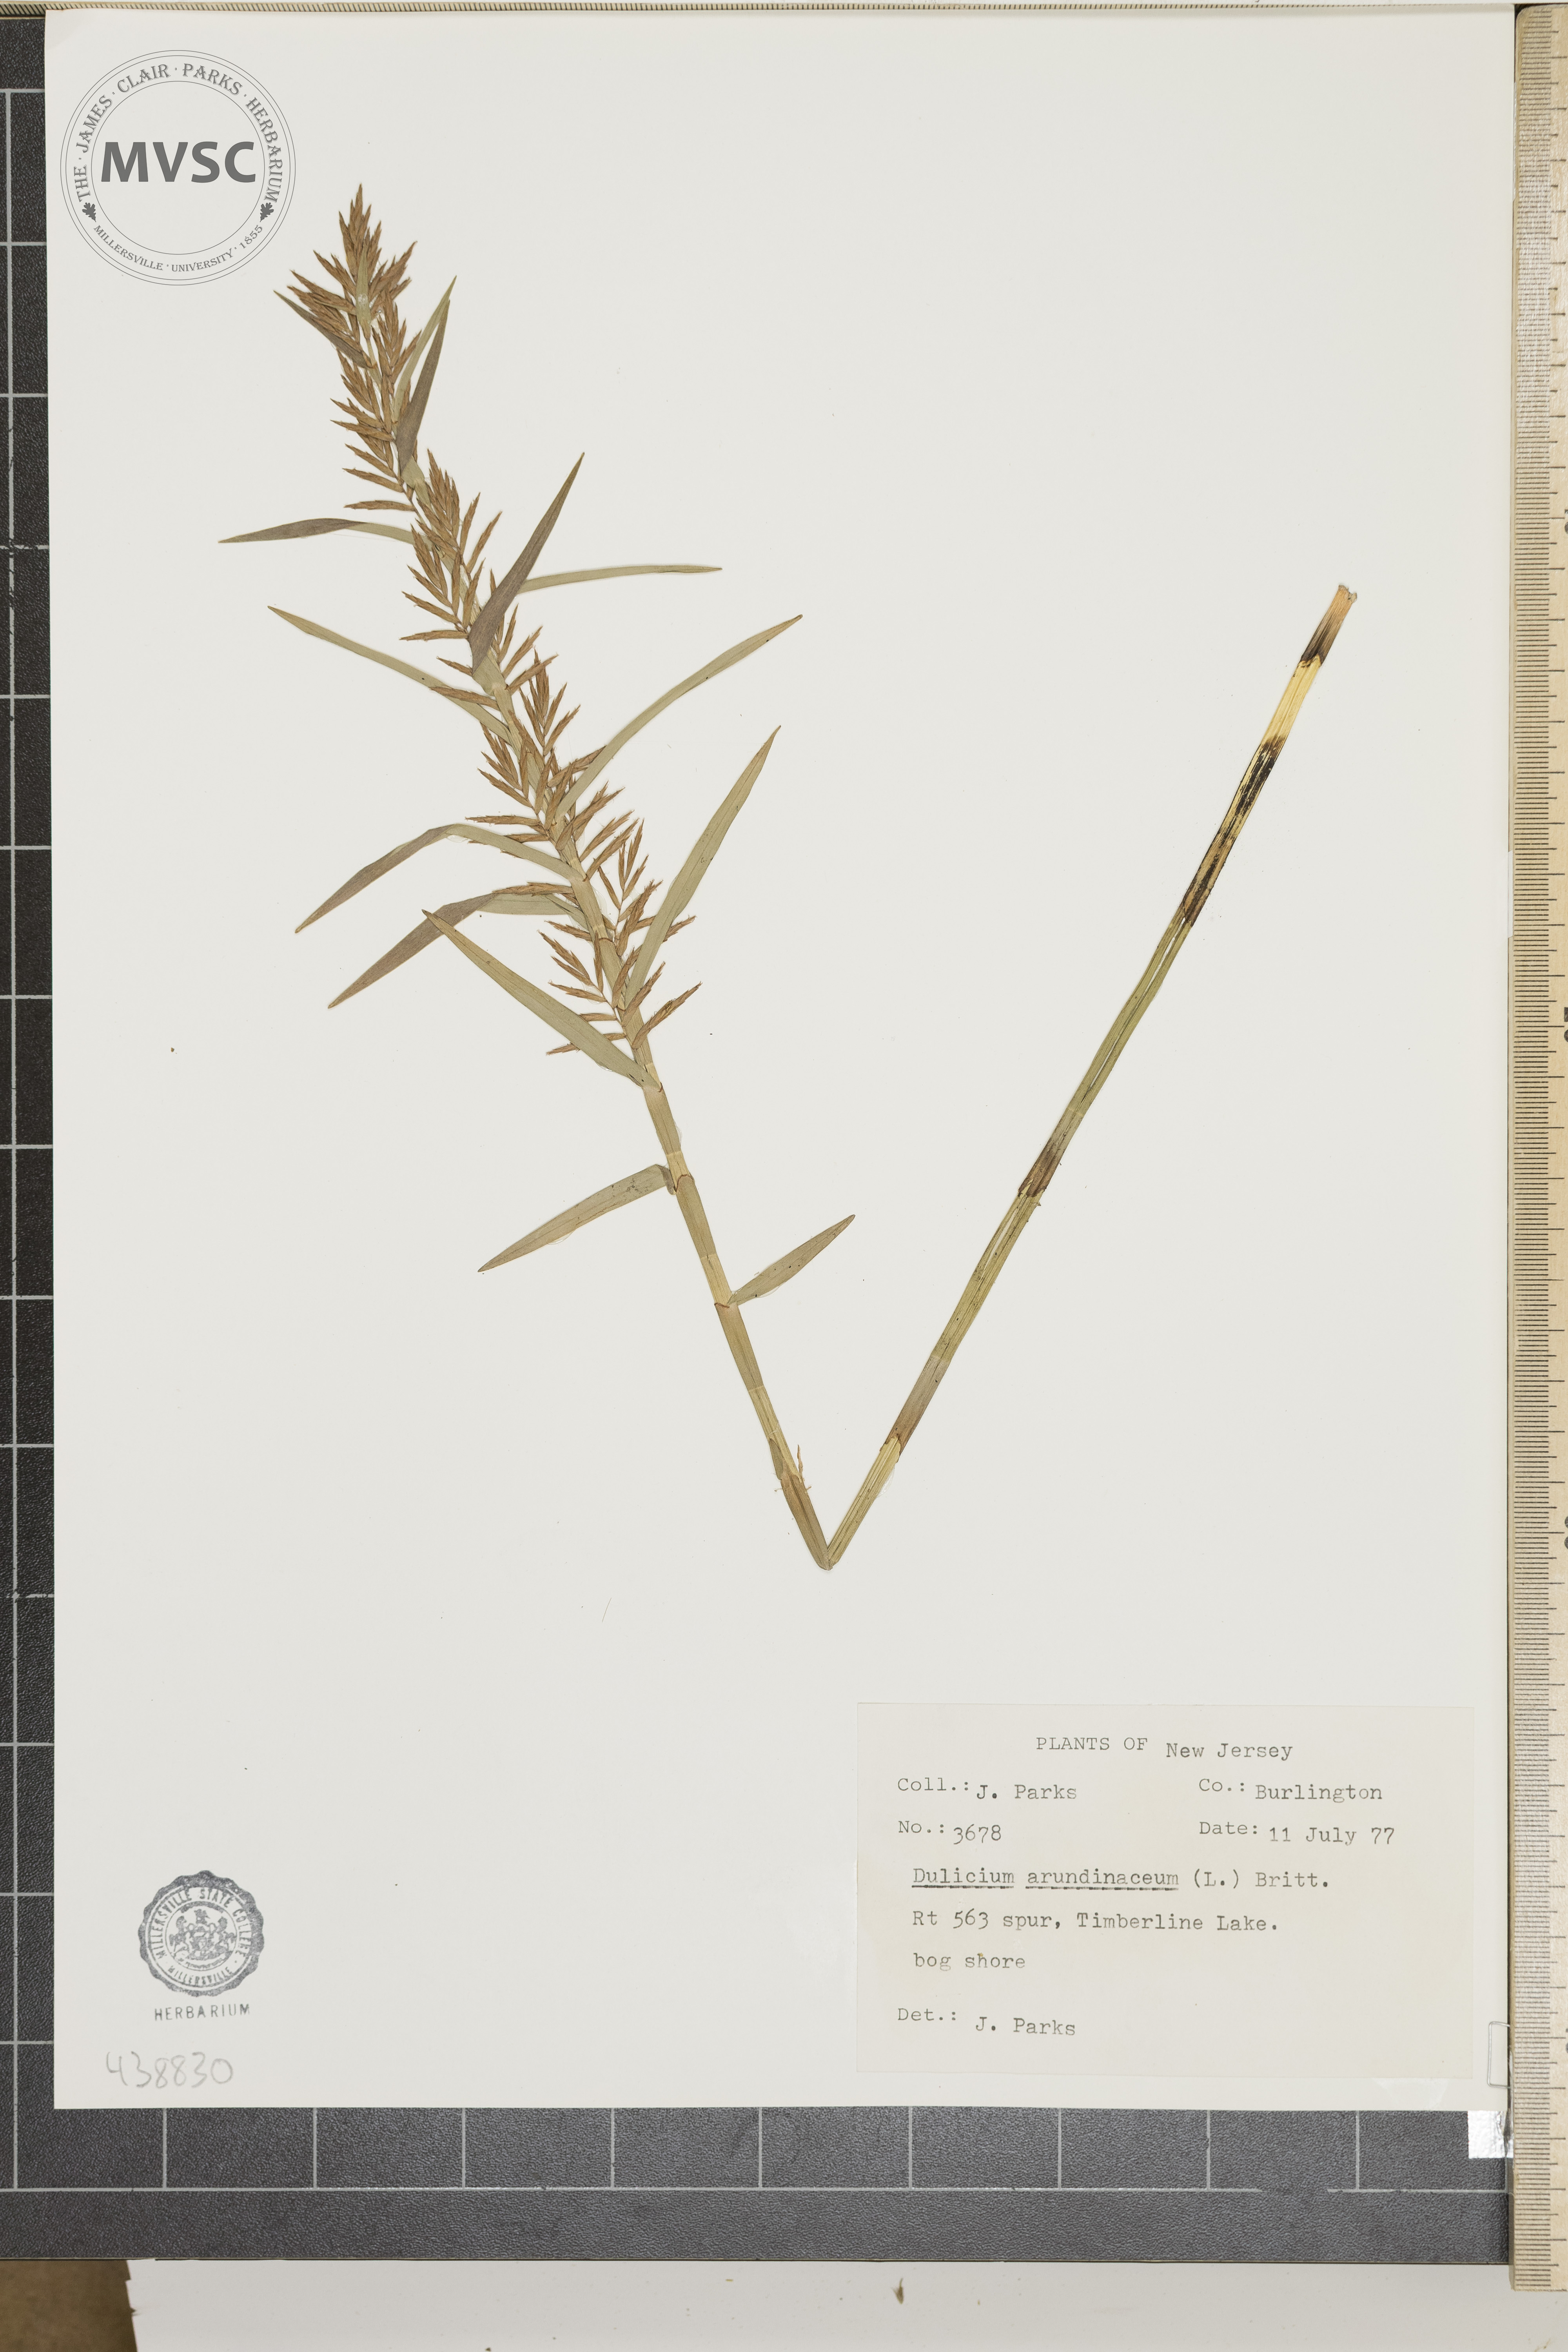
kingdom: Plantae
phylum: Tracheophyta
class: Liliopsida
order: Poales
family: Cyperaceae
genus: Dulichium
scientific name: Dulichium arundinaceum
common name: Three-way sedge
